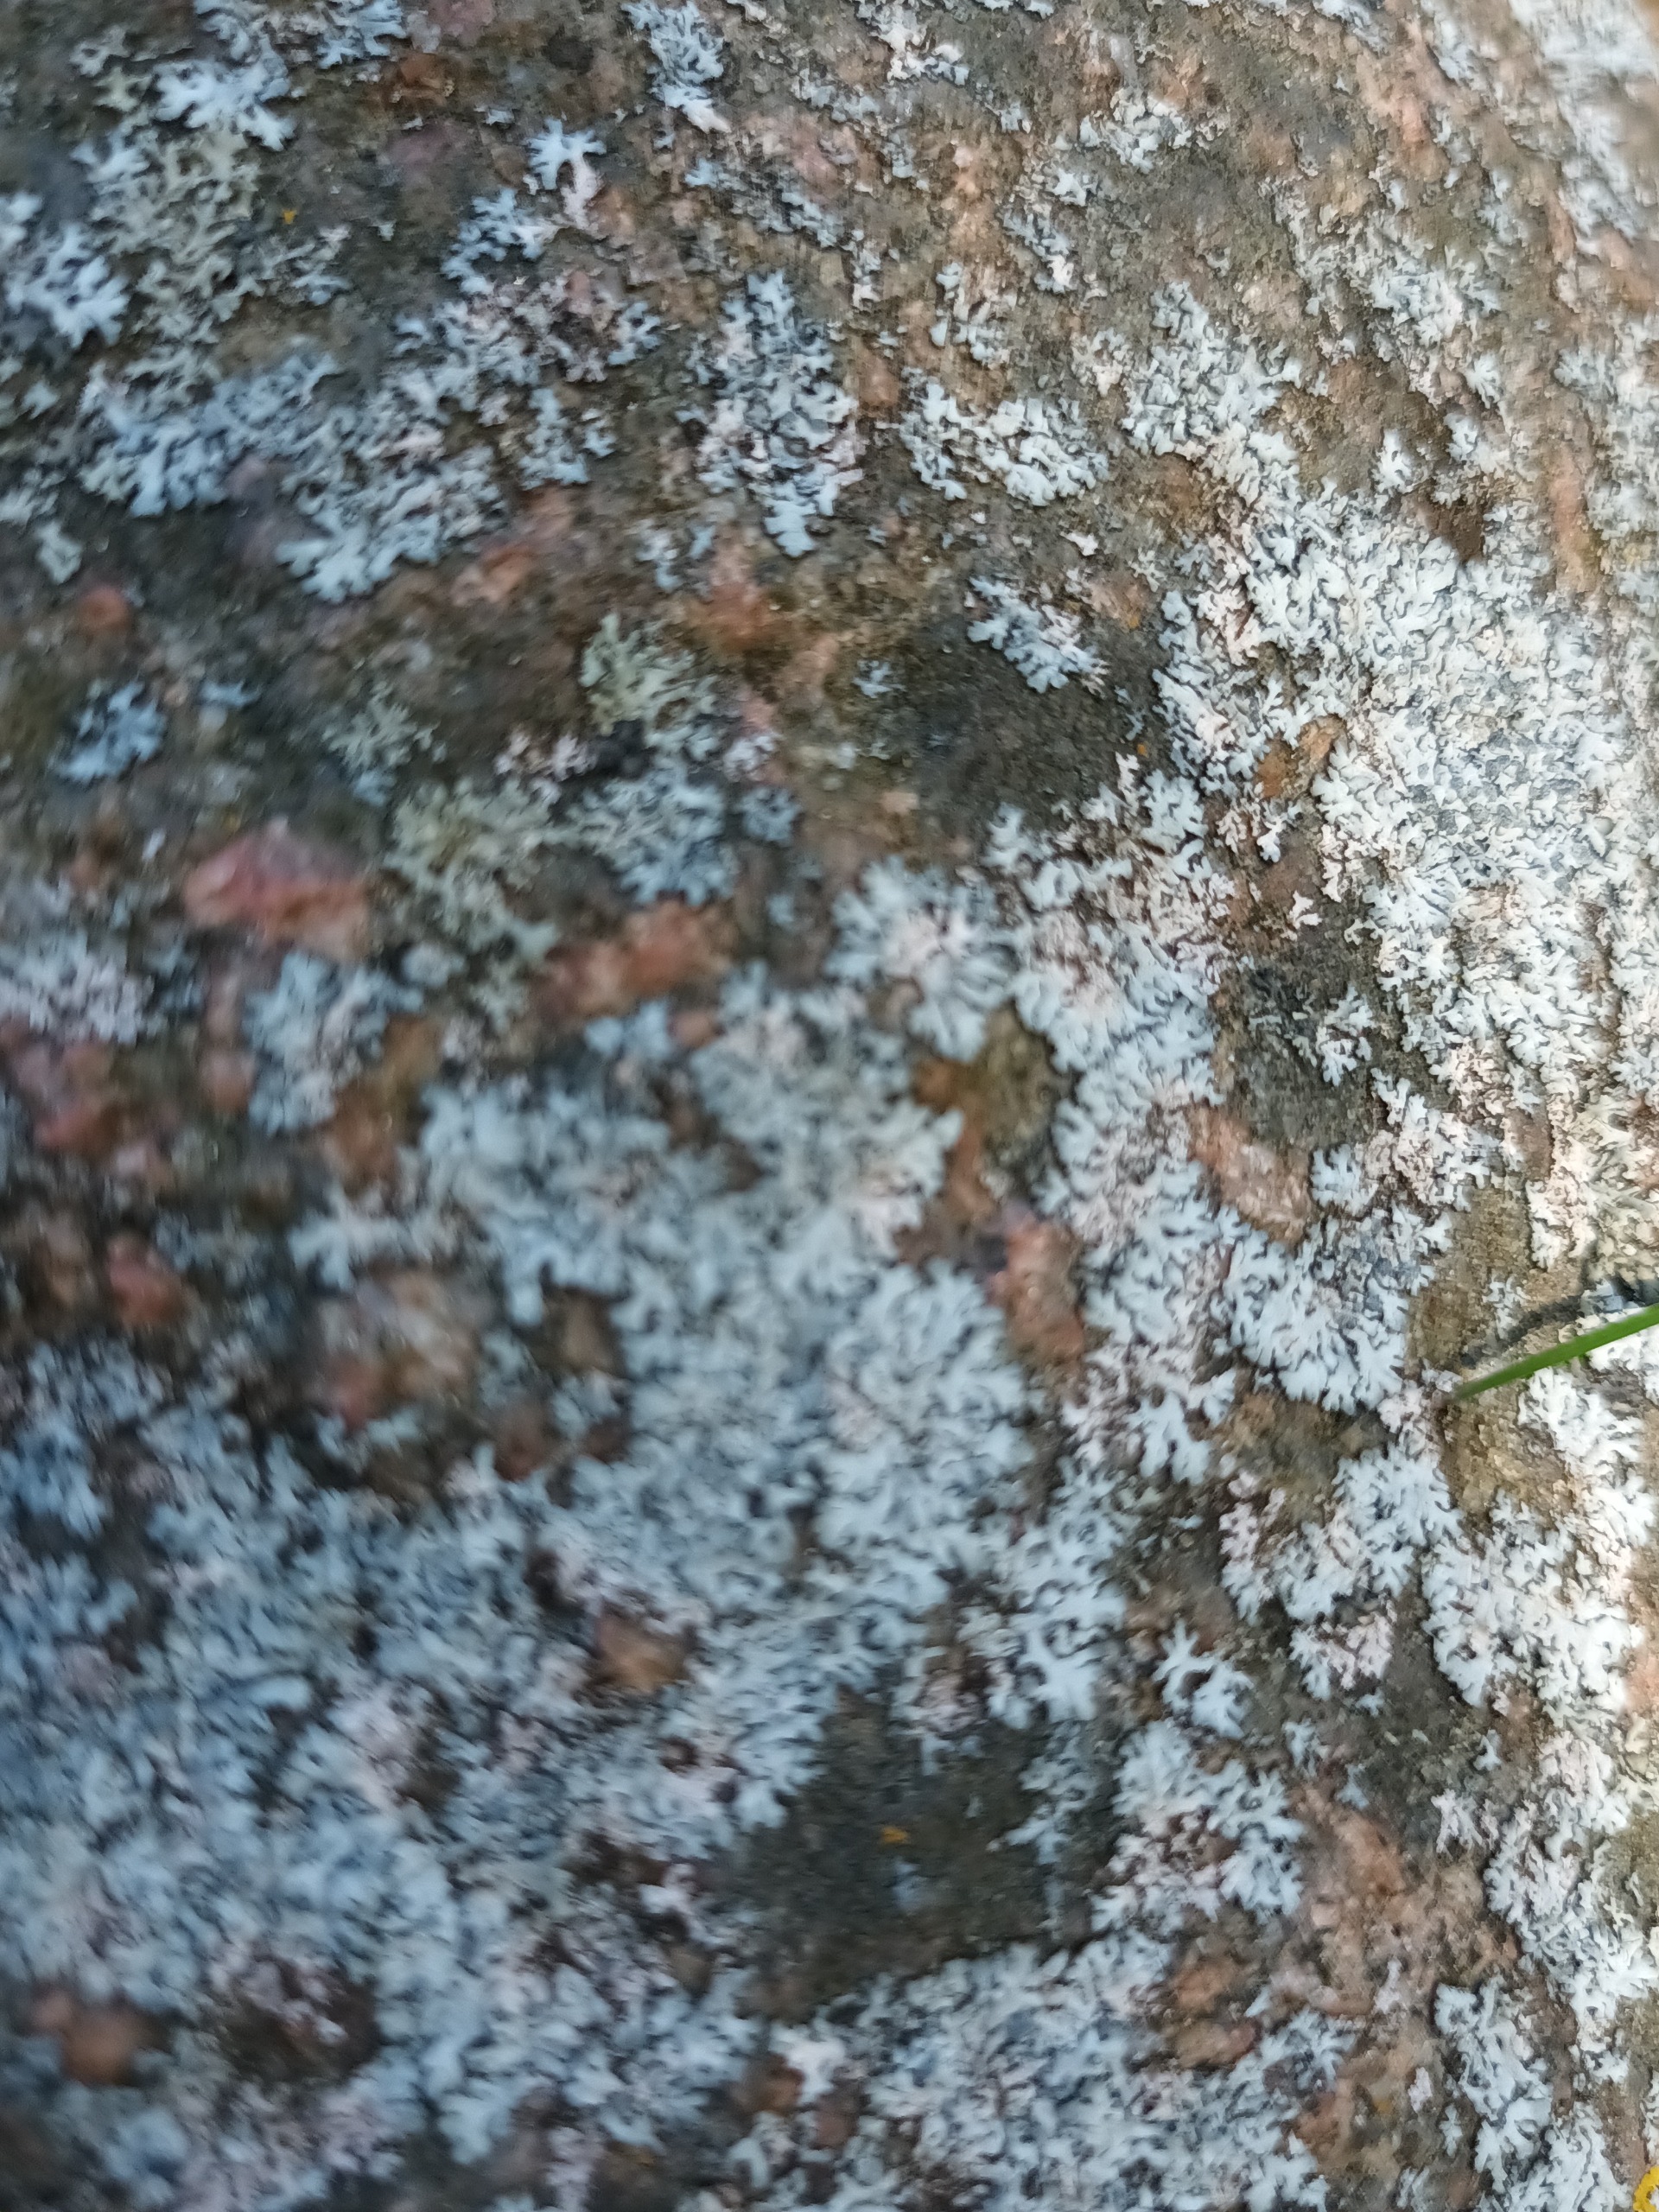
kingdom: Fungi
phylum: Ascomycota
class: Lecanoromycetes
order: Caliciales
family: Physciaceae
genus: Physcia
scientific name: Physcia caesia
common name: Blågrå rosetlav
